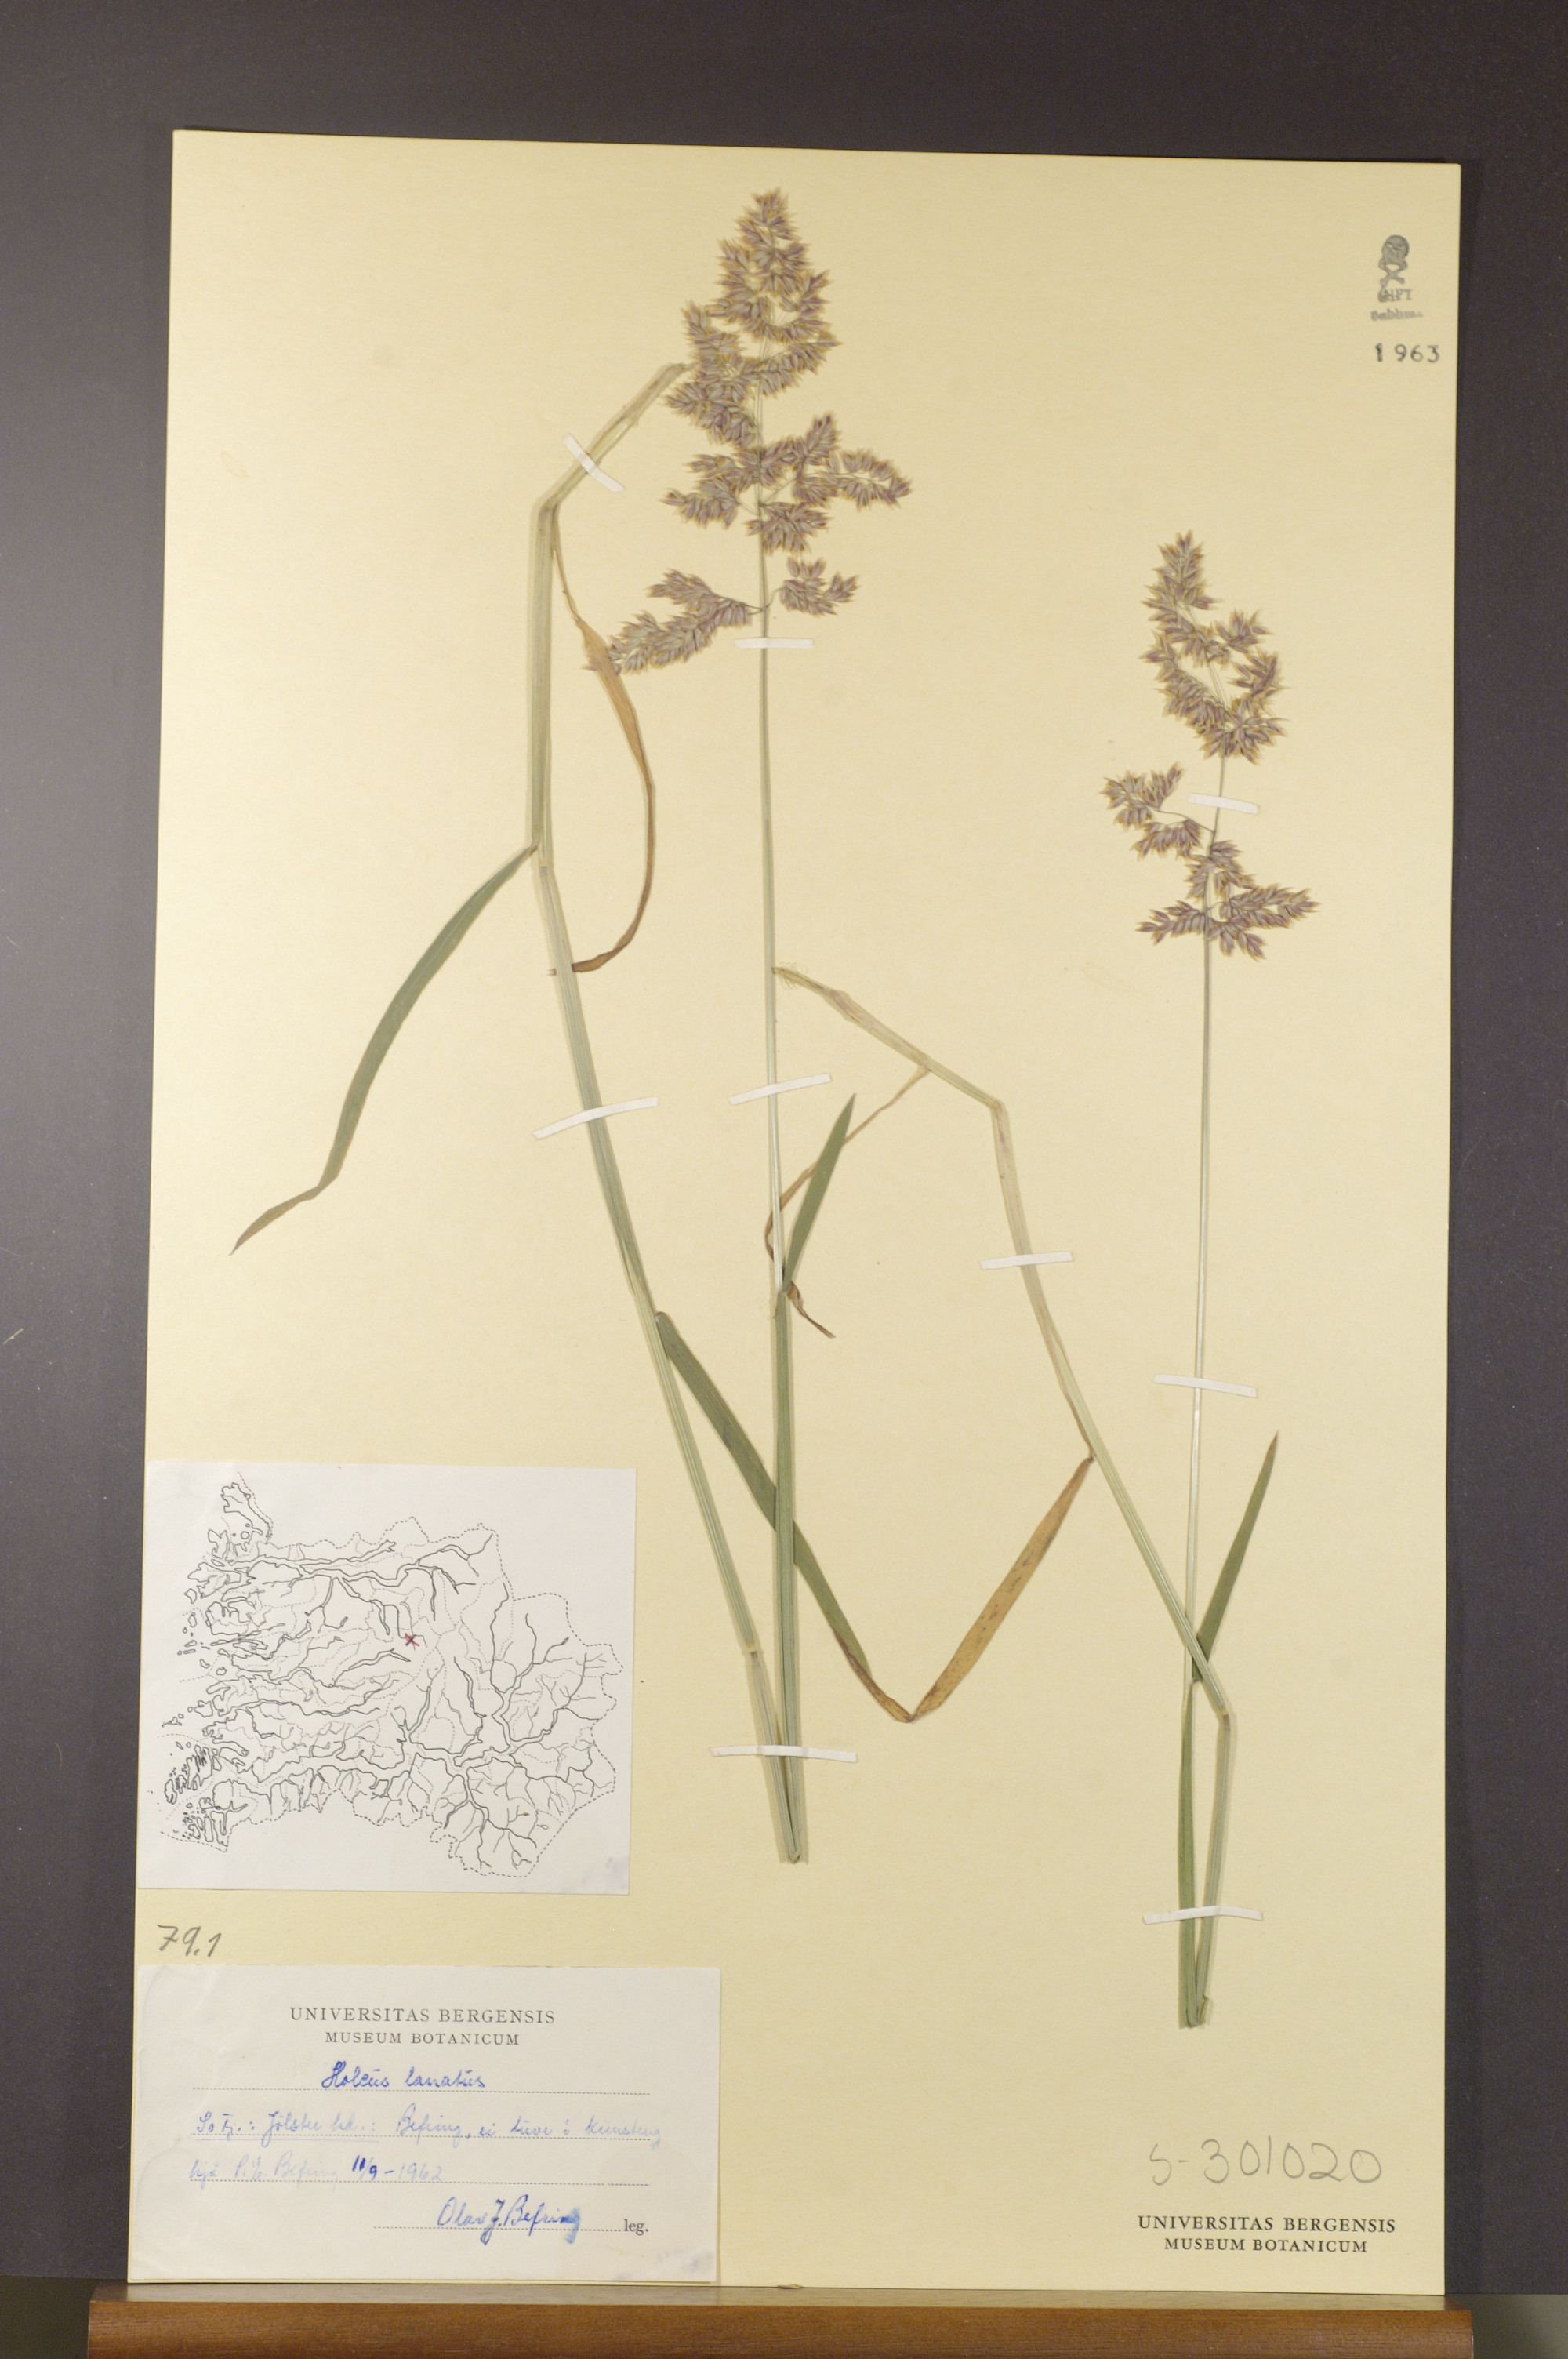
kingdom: Plantae
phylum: Tracheophyta
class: Liliopsida
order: Poales
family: Poaceae
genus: Holcus
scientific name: Holcus lanatus
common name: Yorkshire-fog
